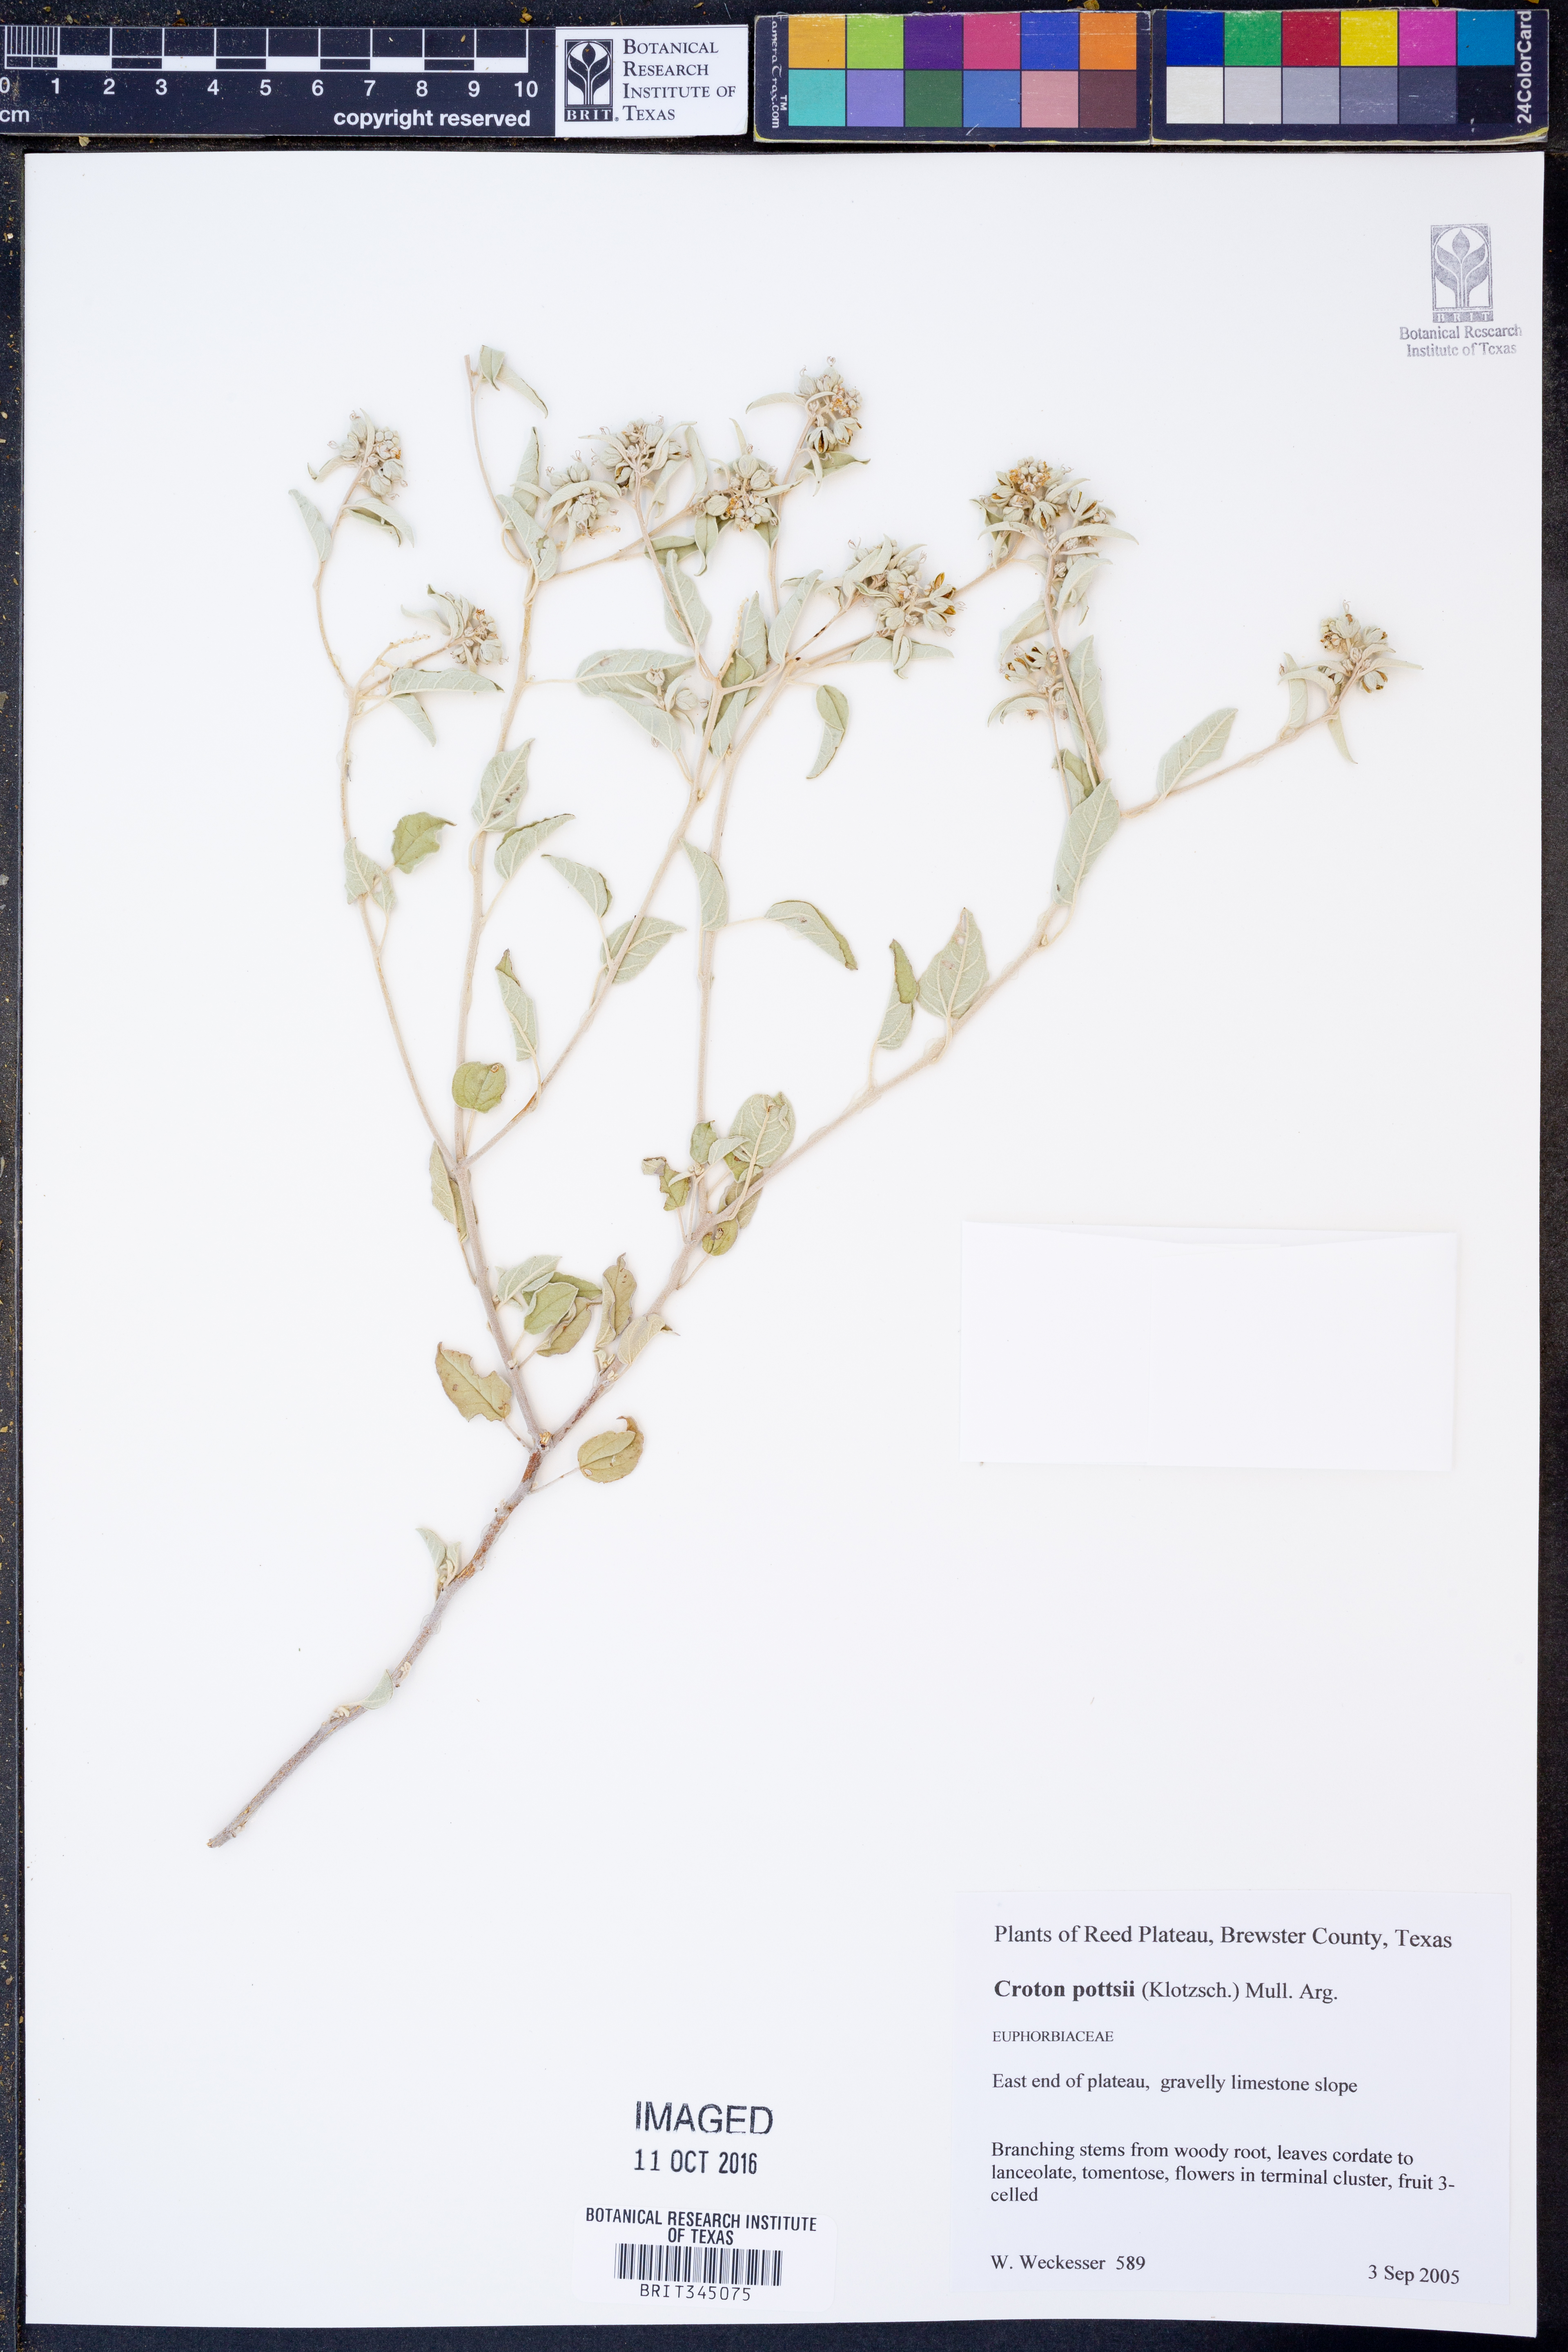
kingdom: Plantae
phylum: Tracheophyta
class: Magnoliopsida
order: Malpighiales
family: Euphorbiaceae
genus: Croton
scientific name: Croton pottsii
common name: Leatherweed
